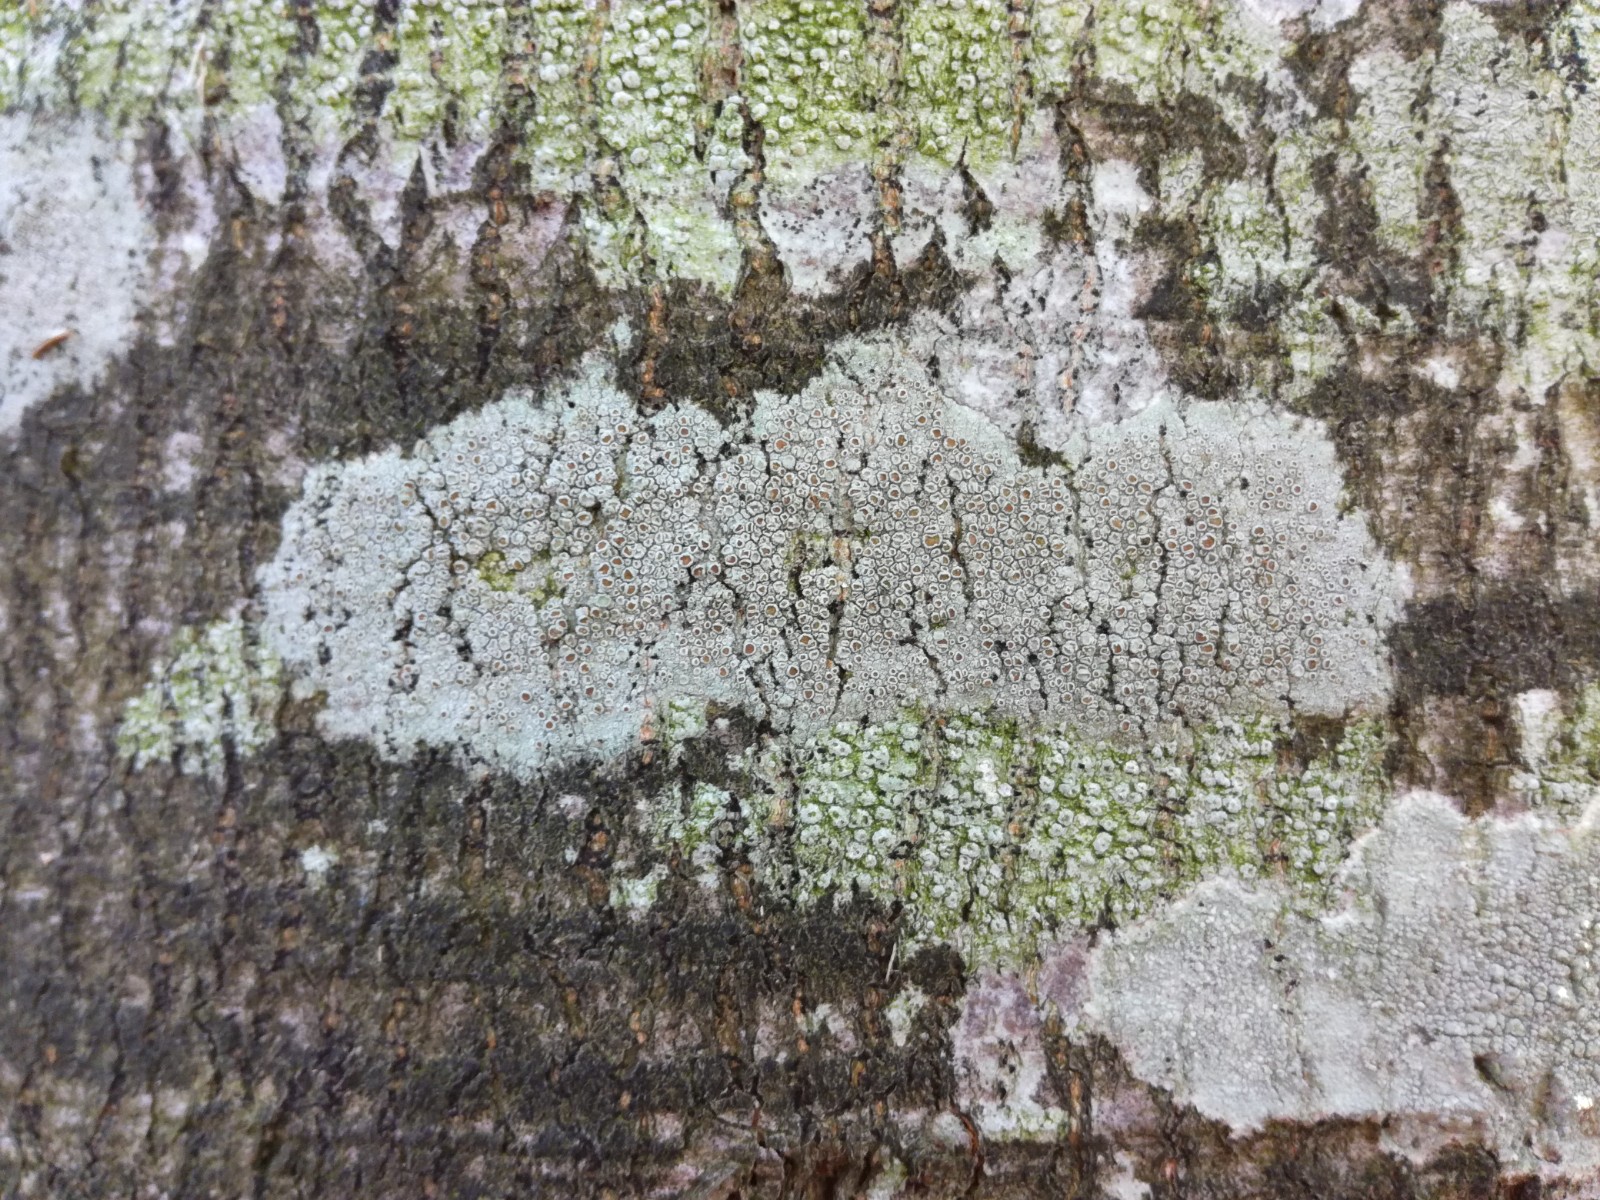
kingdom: Fungi
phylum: Ascomycota
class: Lecanoromycetes
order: Lecanorales
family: Lecanoraceae
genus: Lecanora
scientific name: Lecanora chlarotera
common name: brun kantskivelav
